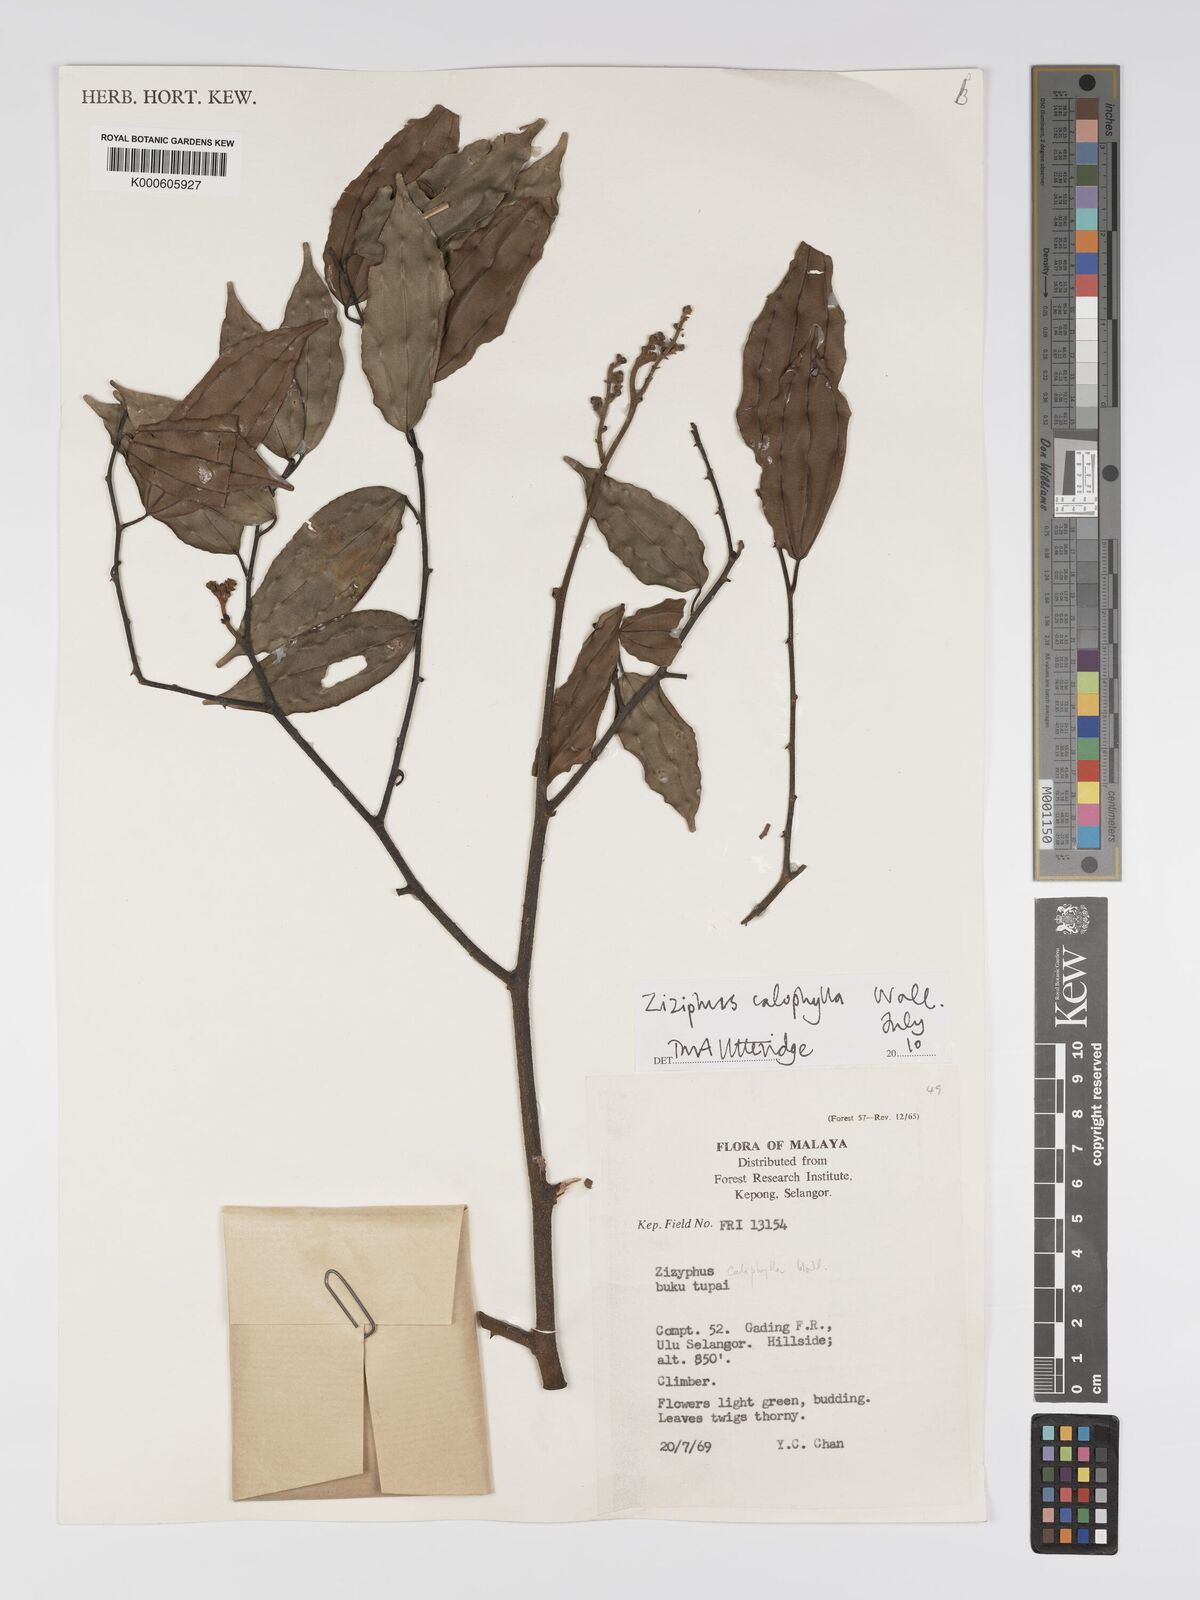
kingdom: Plantae
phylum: Tracheophyta
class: Magnoliopsida
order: Rosales
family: Rhamnaceae
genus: Ziziphus
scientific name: Ziziphus calophylla
